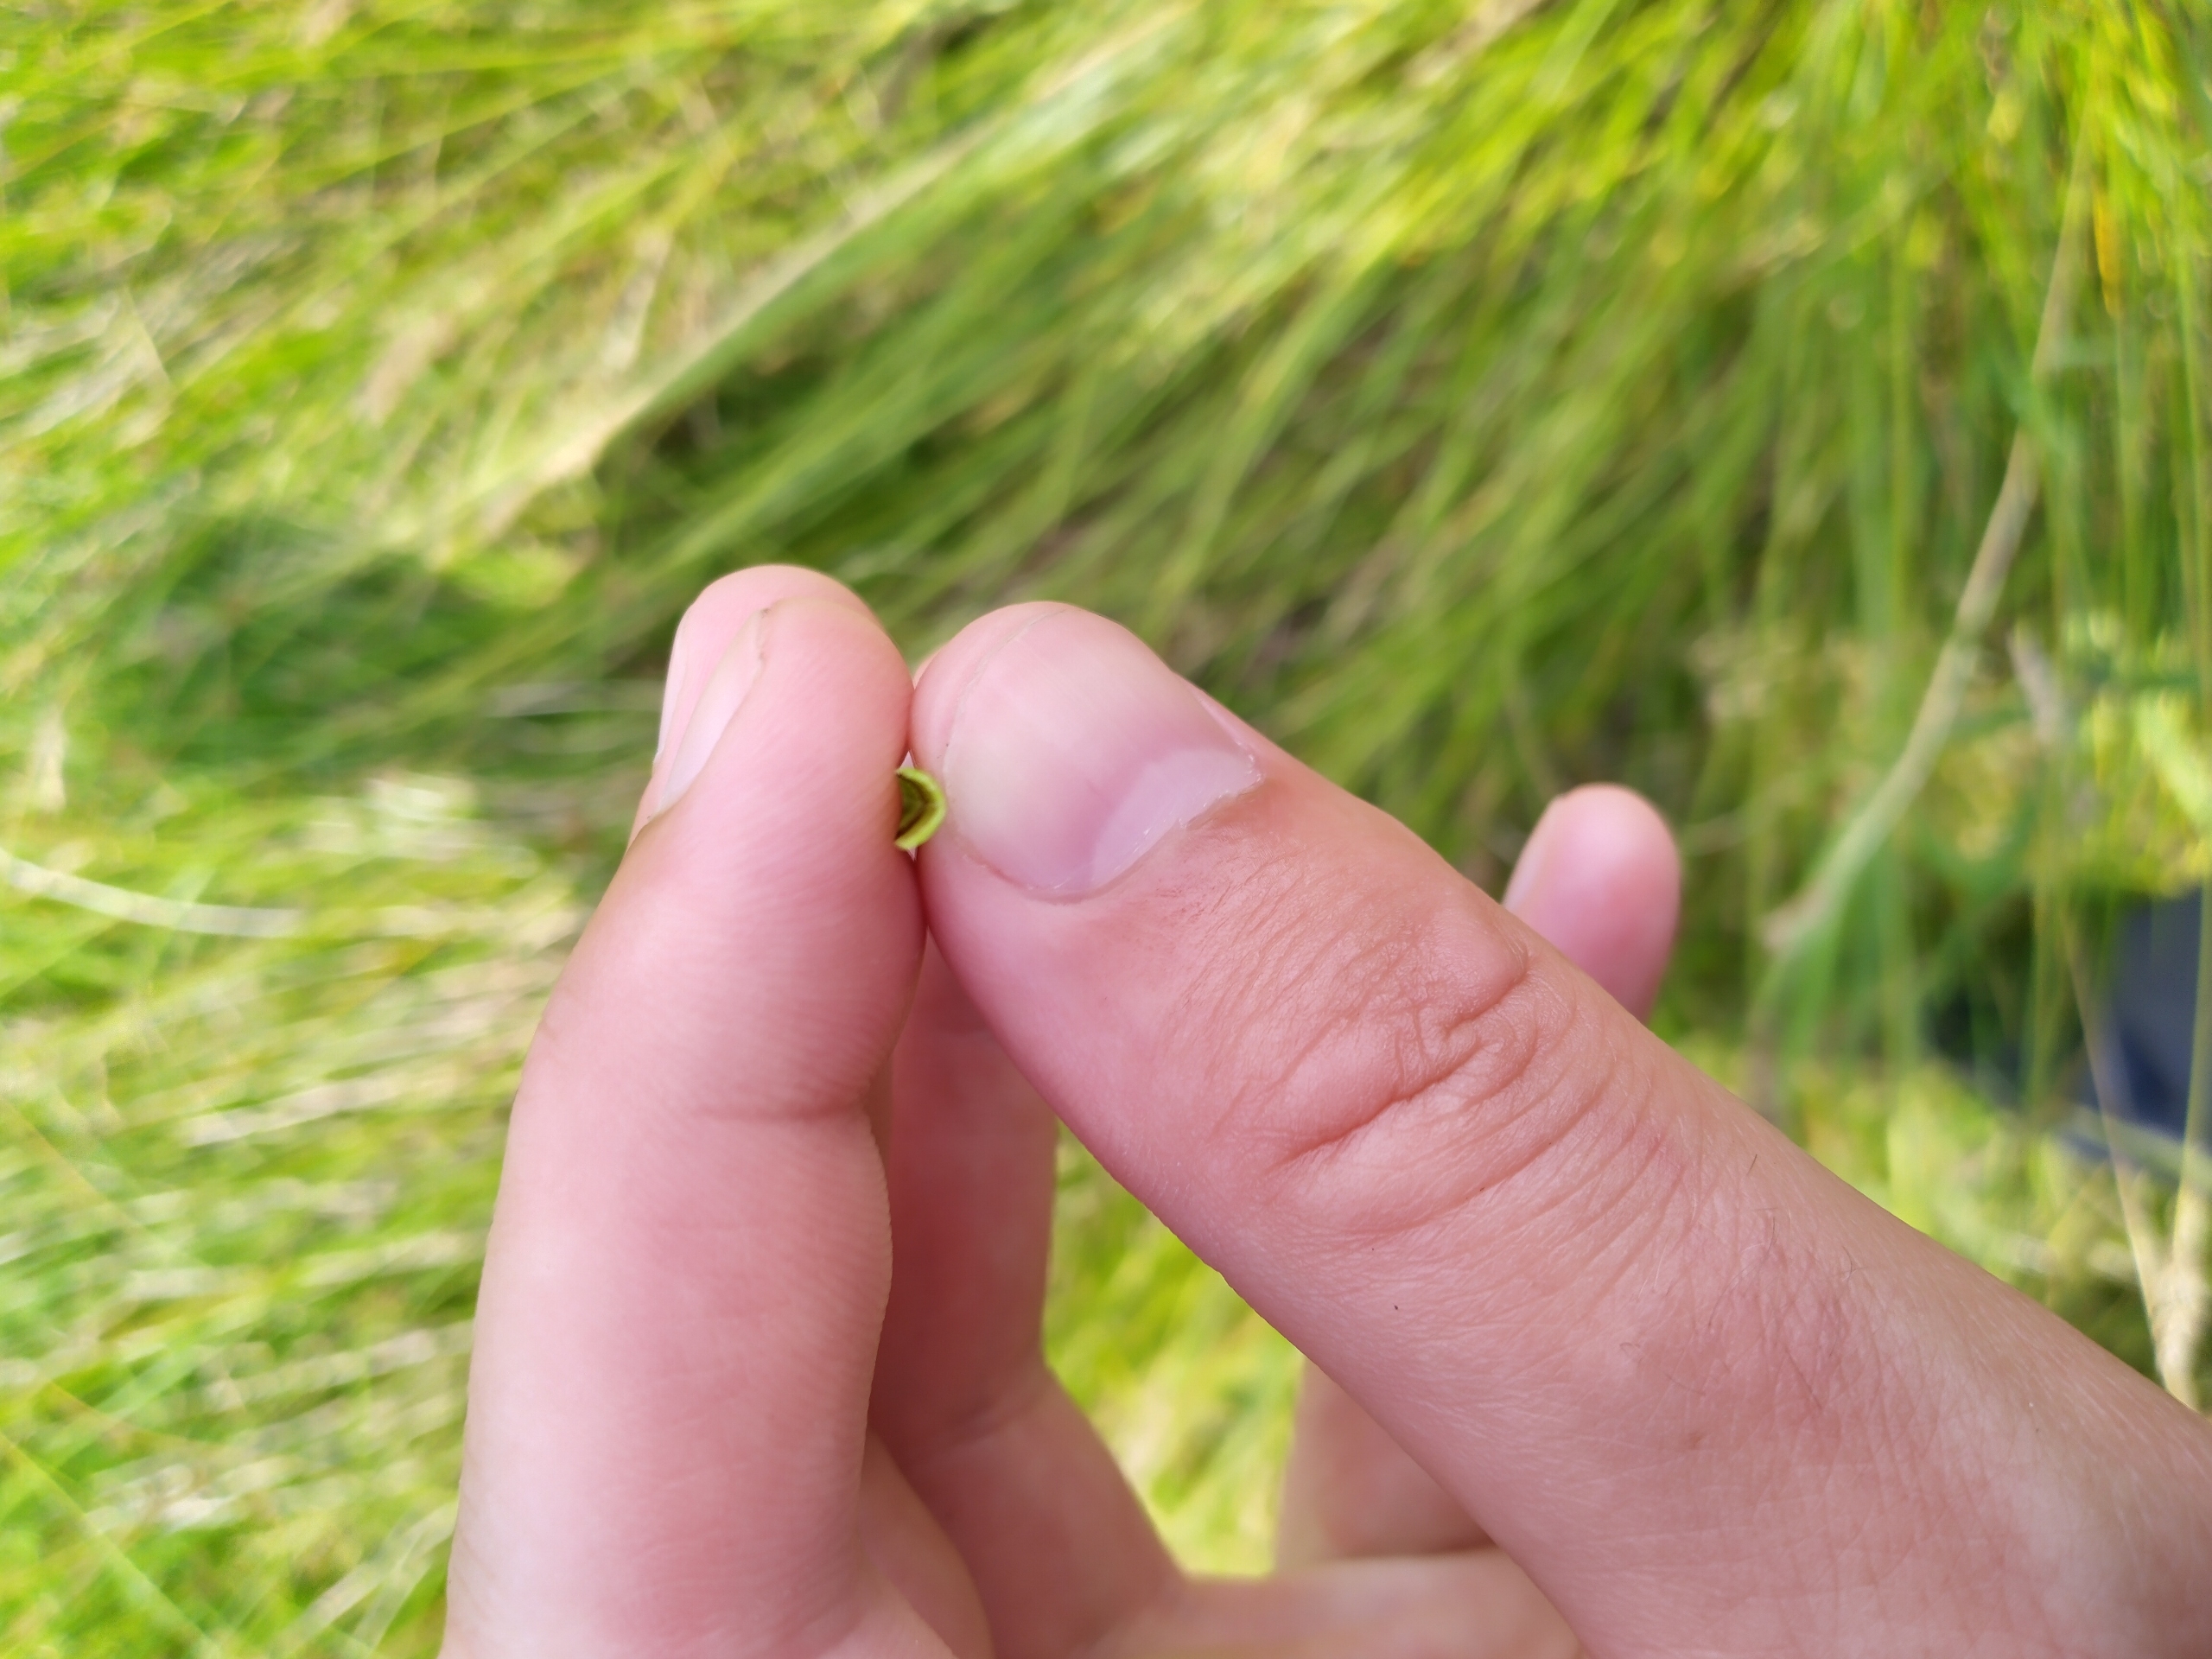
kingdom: Plantae
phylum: Tracheophyta
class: Liliopsida
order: Poales
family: Cyperaceae
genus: Carex
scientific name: Carex paniculata
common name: Top-star
